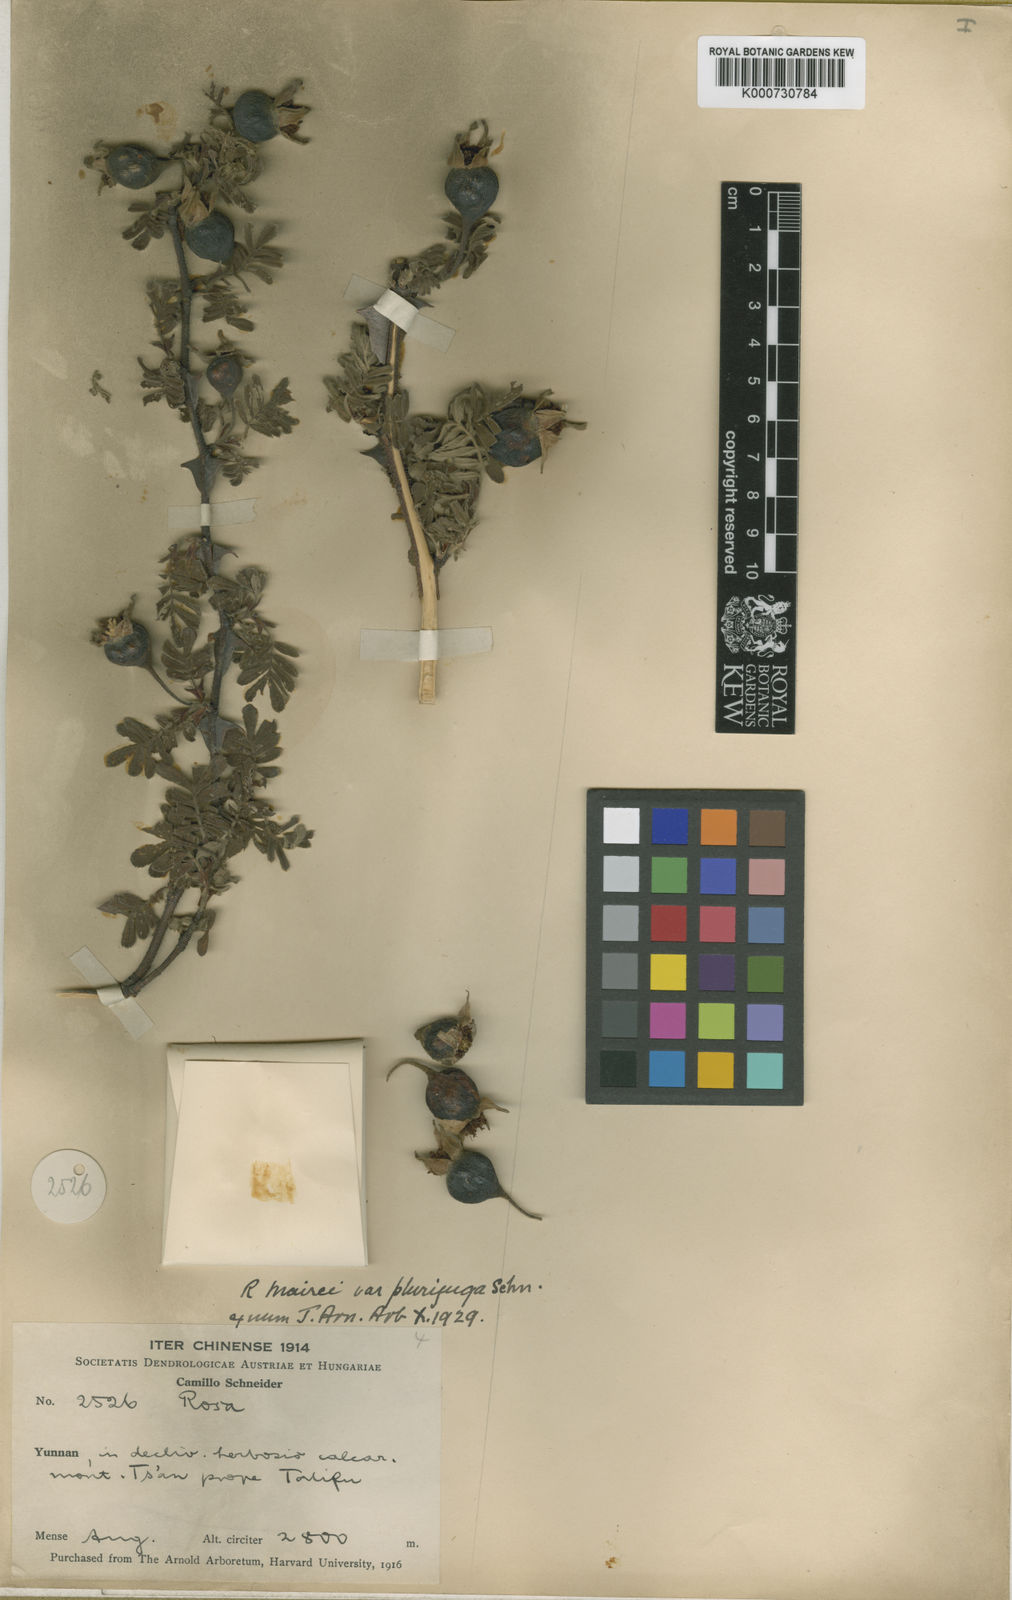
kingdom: Plantae
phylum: Tracheophyta
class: Magnoliopsida
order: Rosales
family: Rosaceae
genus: Rosa
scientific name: Rosa sericea
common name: Silky rose
